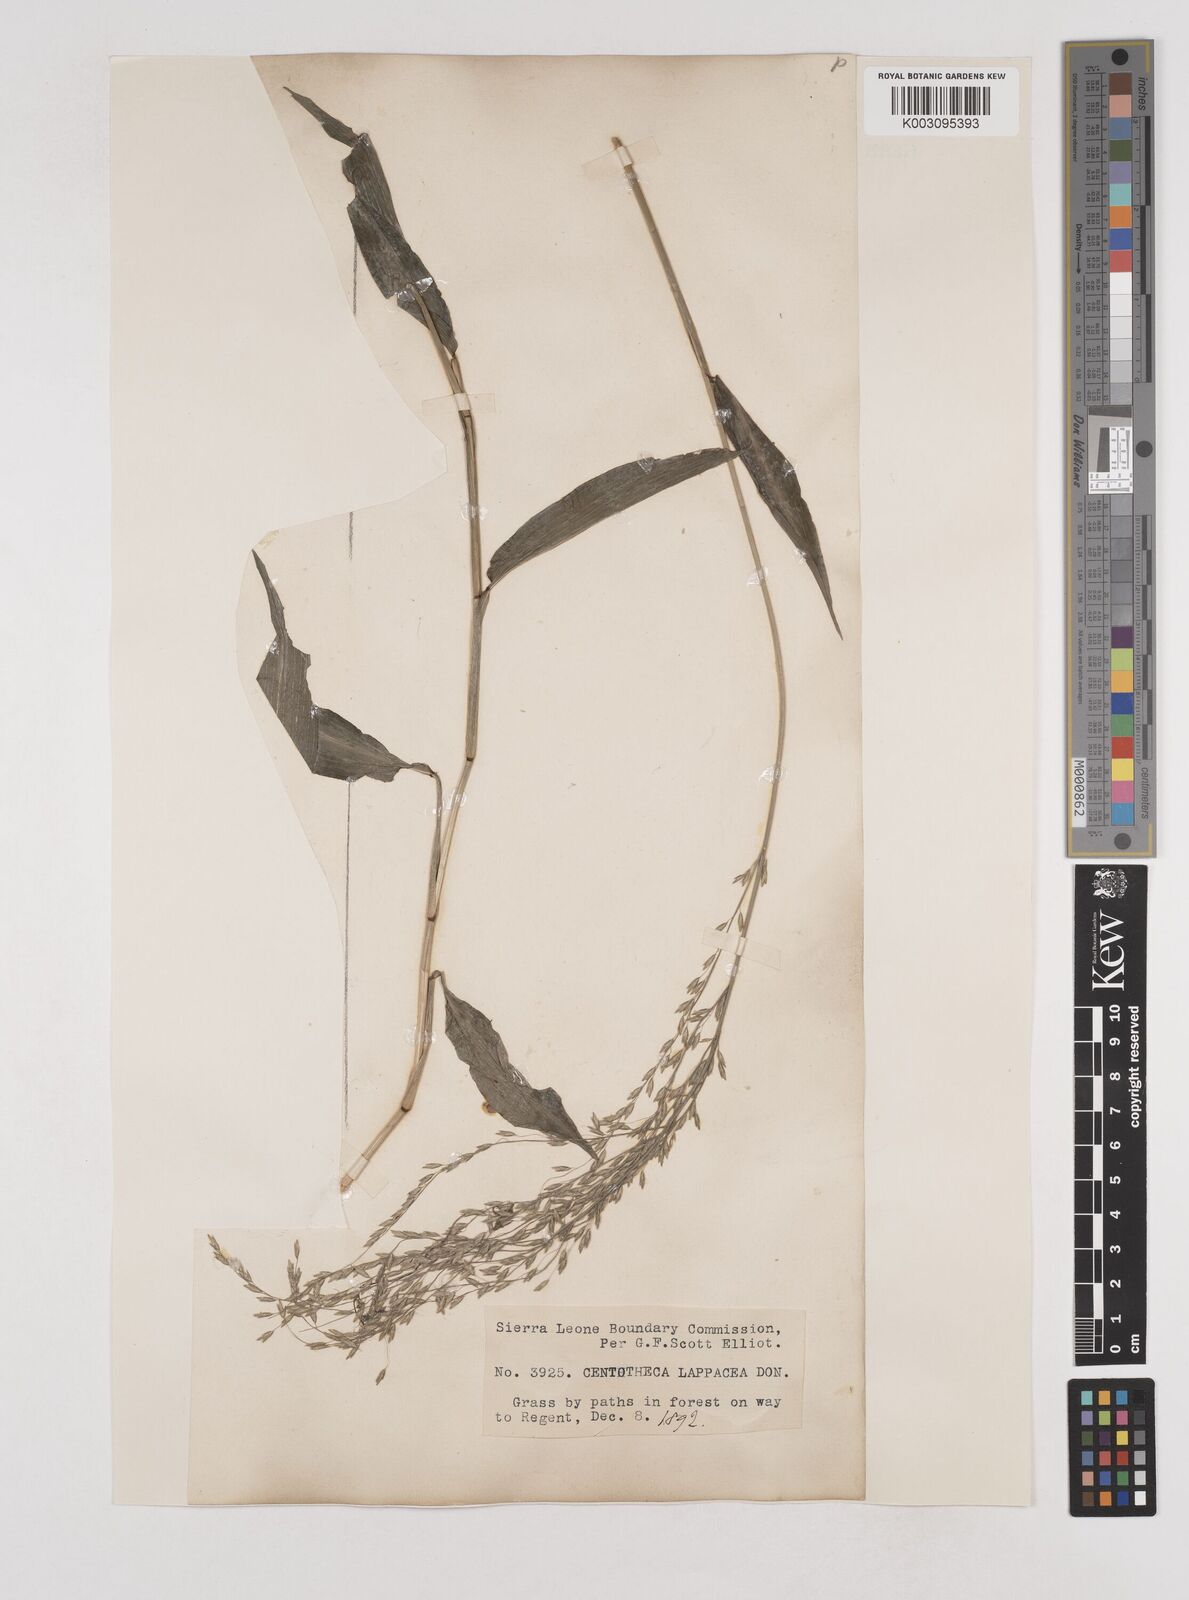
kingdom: Plantae
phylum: Tracheophyta
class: Liliopsida
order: Poales
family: Poaceae
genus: Centotheca
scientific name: Centotheca lappacea
